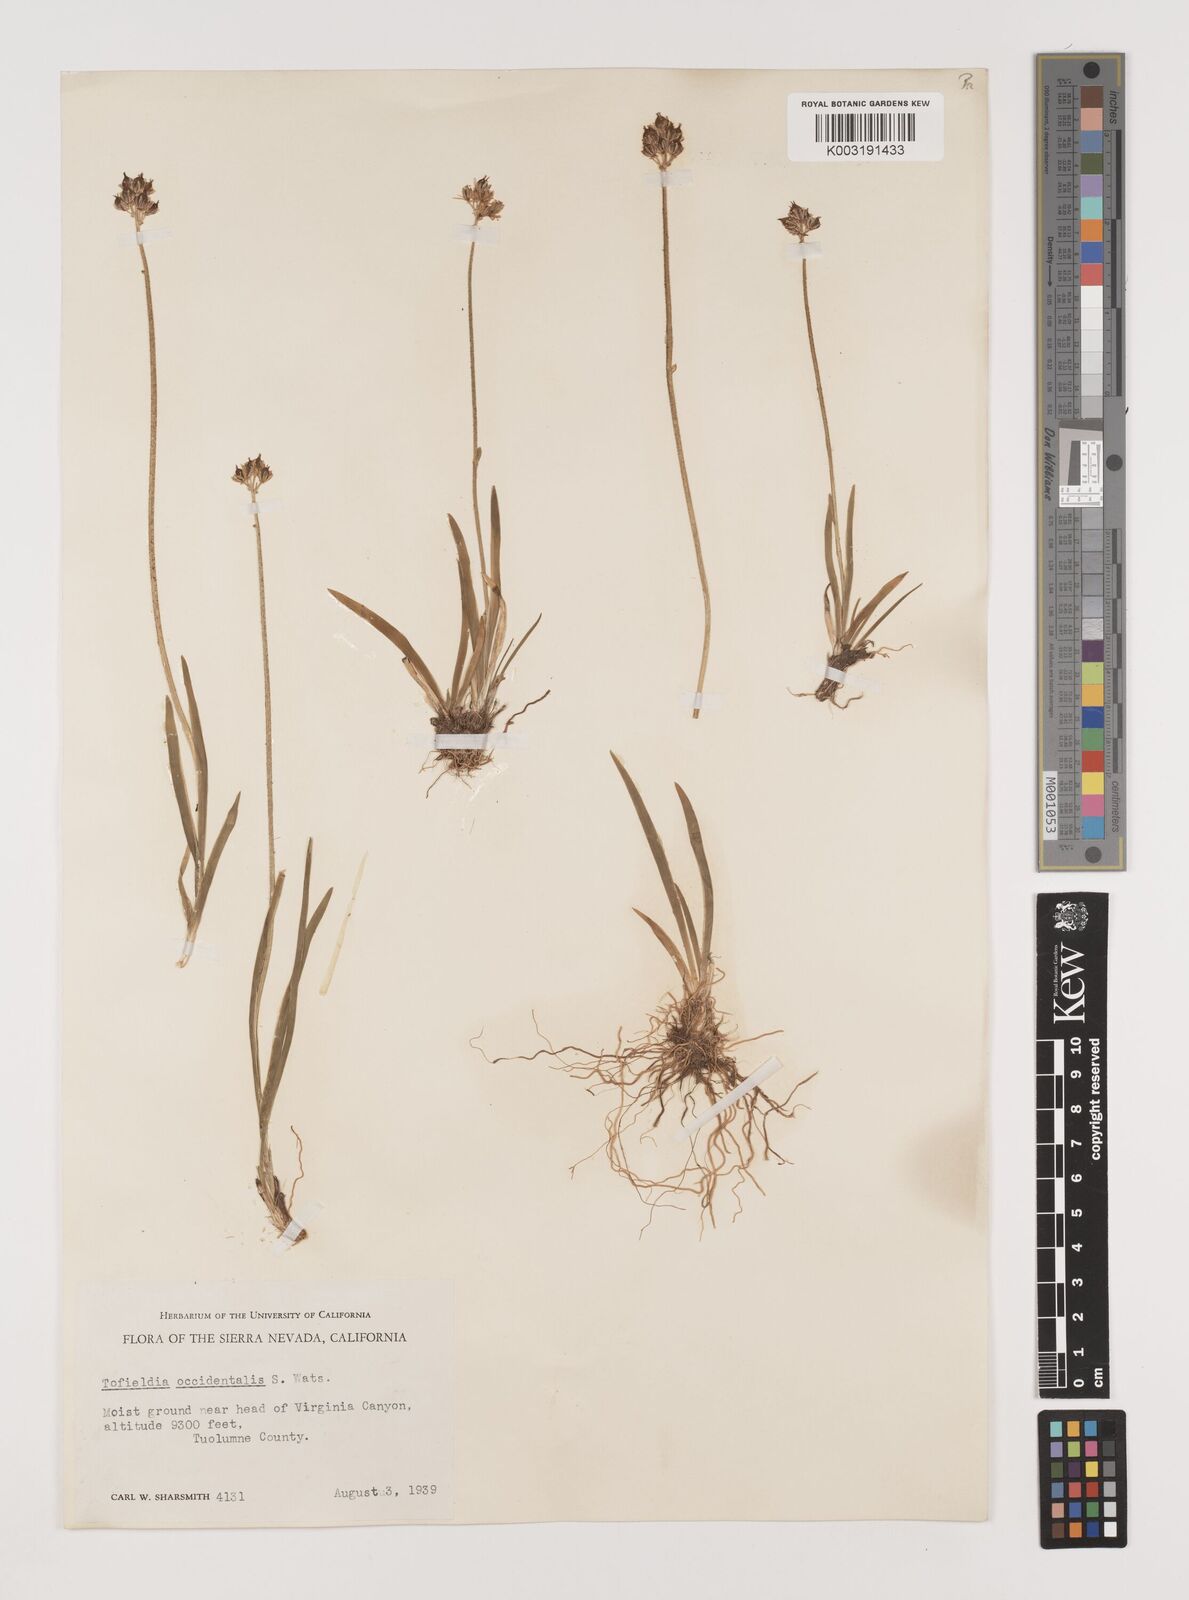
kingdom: Plantae
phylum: Tracheophyta
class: Liliopsida
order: Alismatales
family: Tofieldiaceae
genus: Triantha
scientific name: Triantha occidentalis
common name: Western false asphodel
